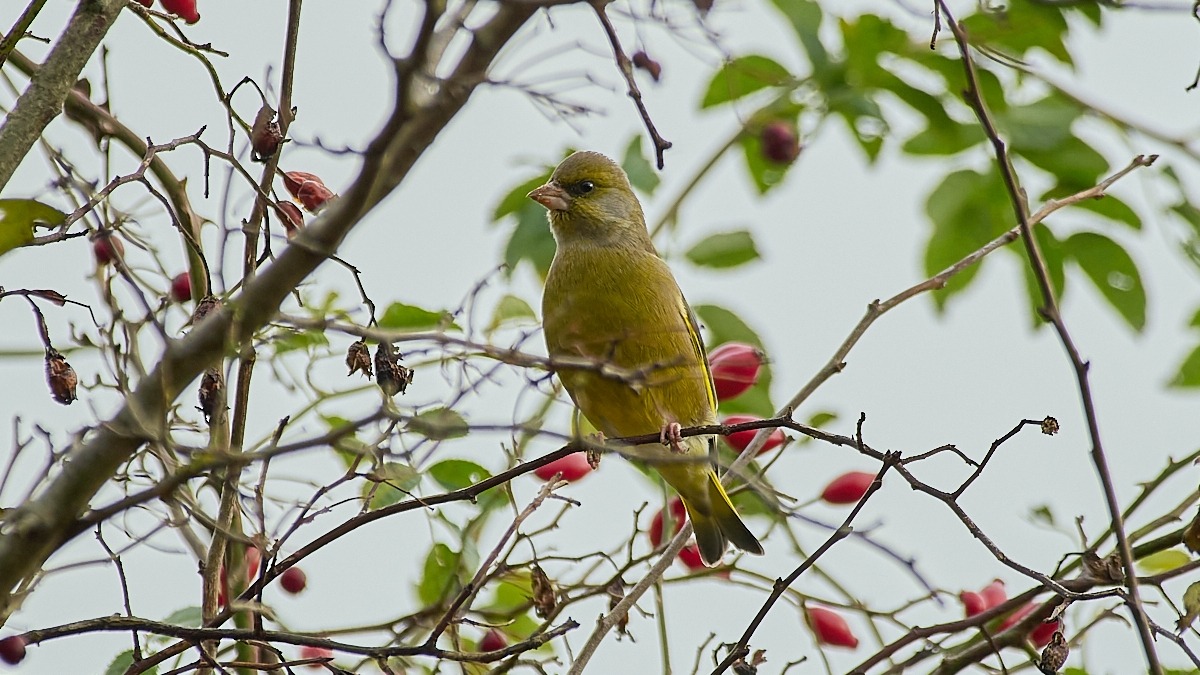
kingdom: Plantae
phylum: Tracheophyta
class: Liliopsida
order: Poales
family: Poaceae
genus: Chloris
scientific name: Chloris chloris
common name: Grønirisk
